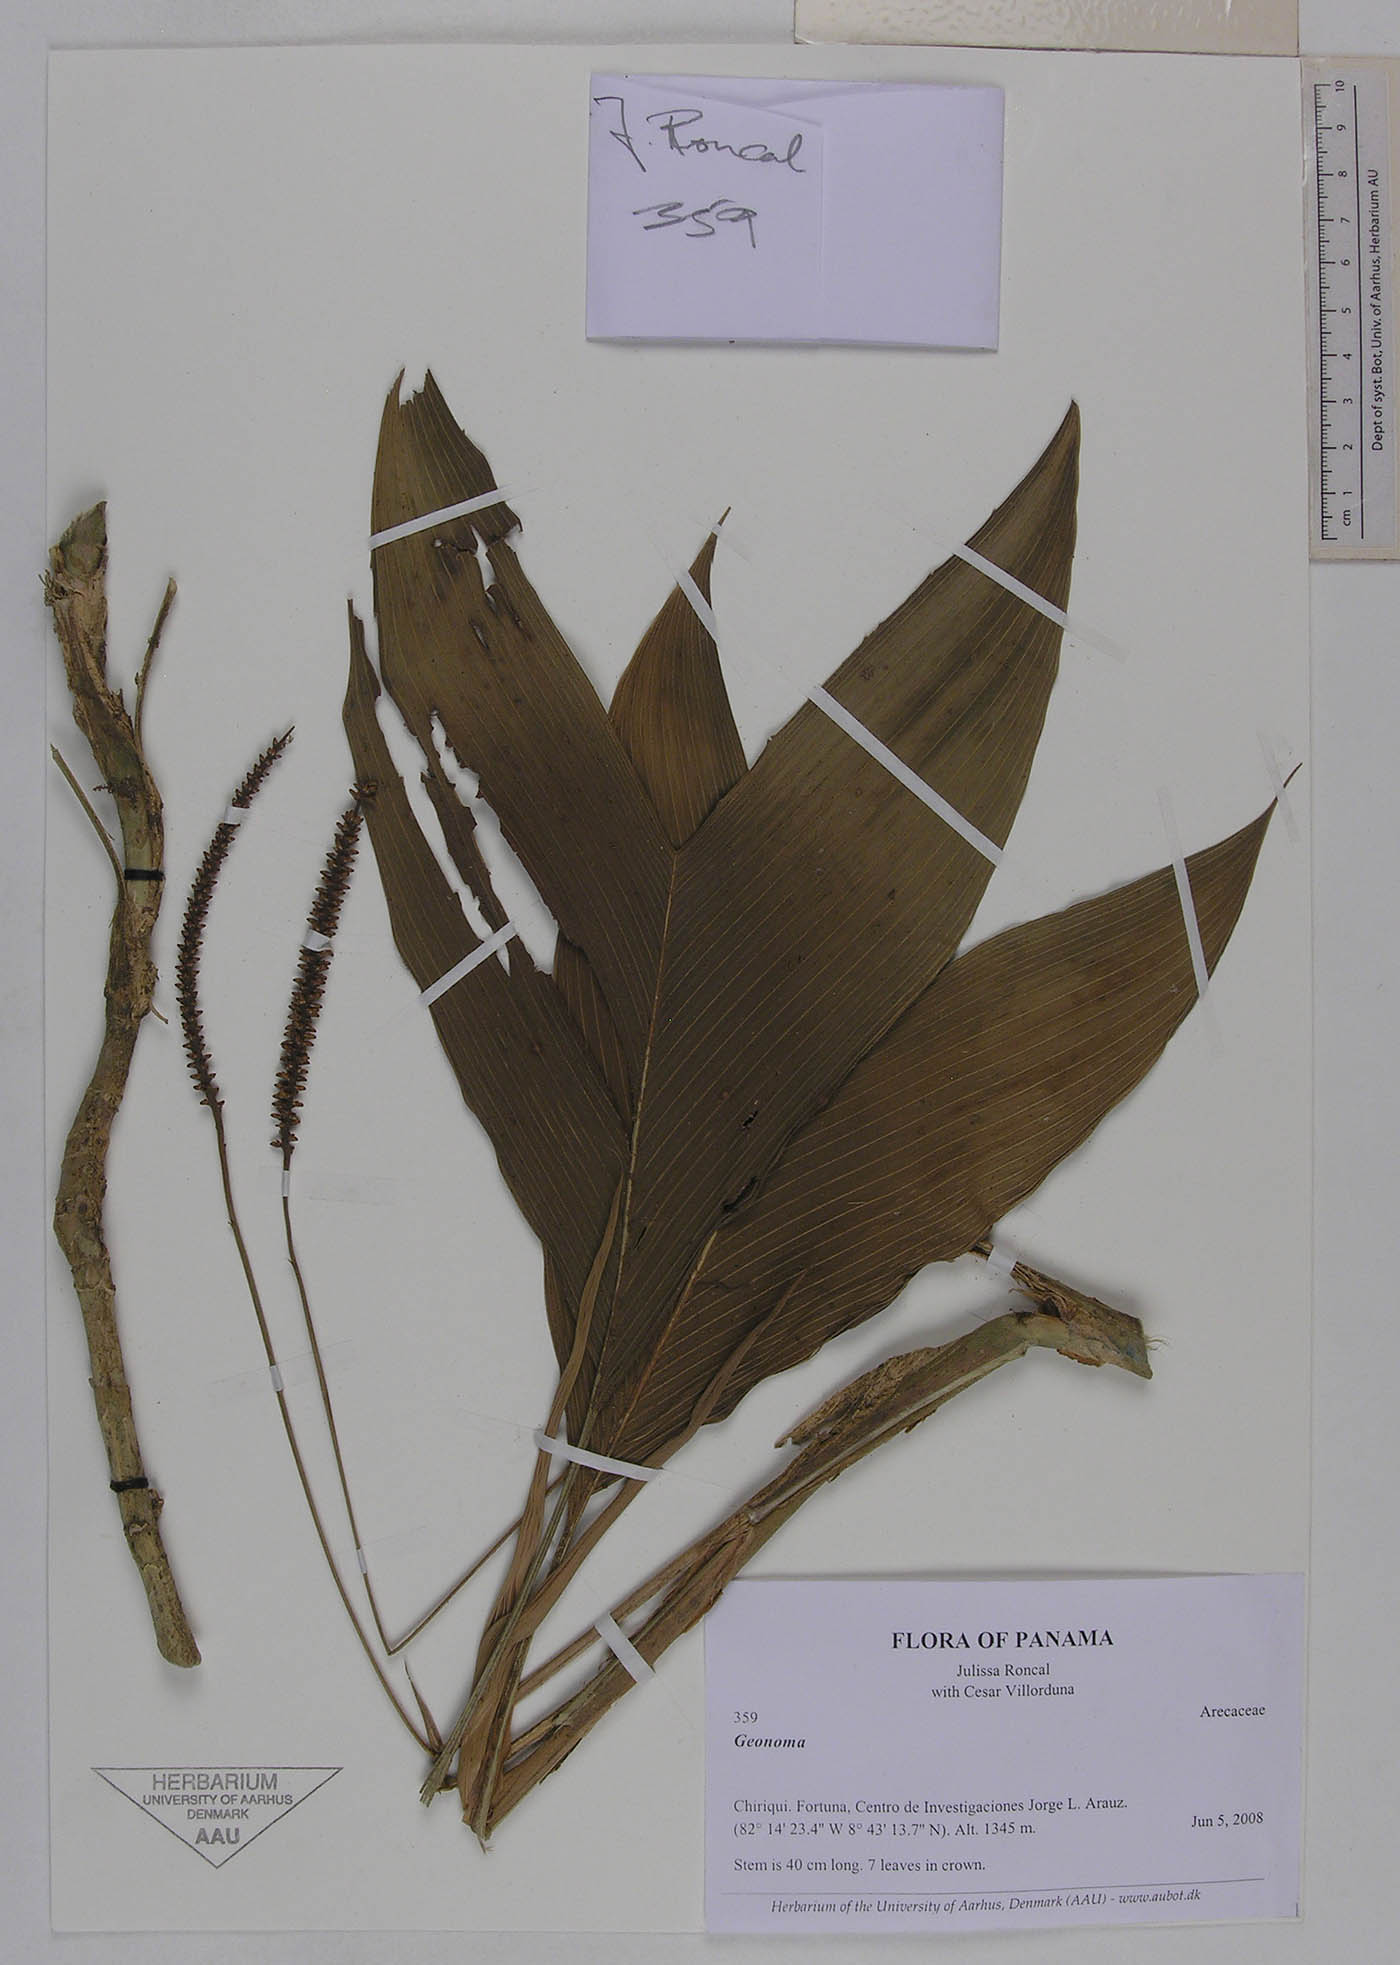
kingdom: Plantae
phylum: Tracheophyta
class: Liliopsida
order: Arecales
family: Arecaceae
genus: Geonoma
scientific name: Geonoma hugonis
